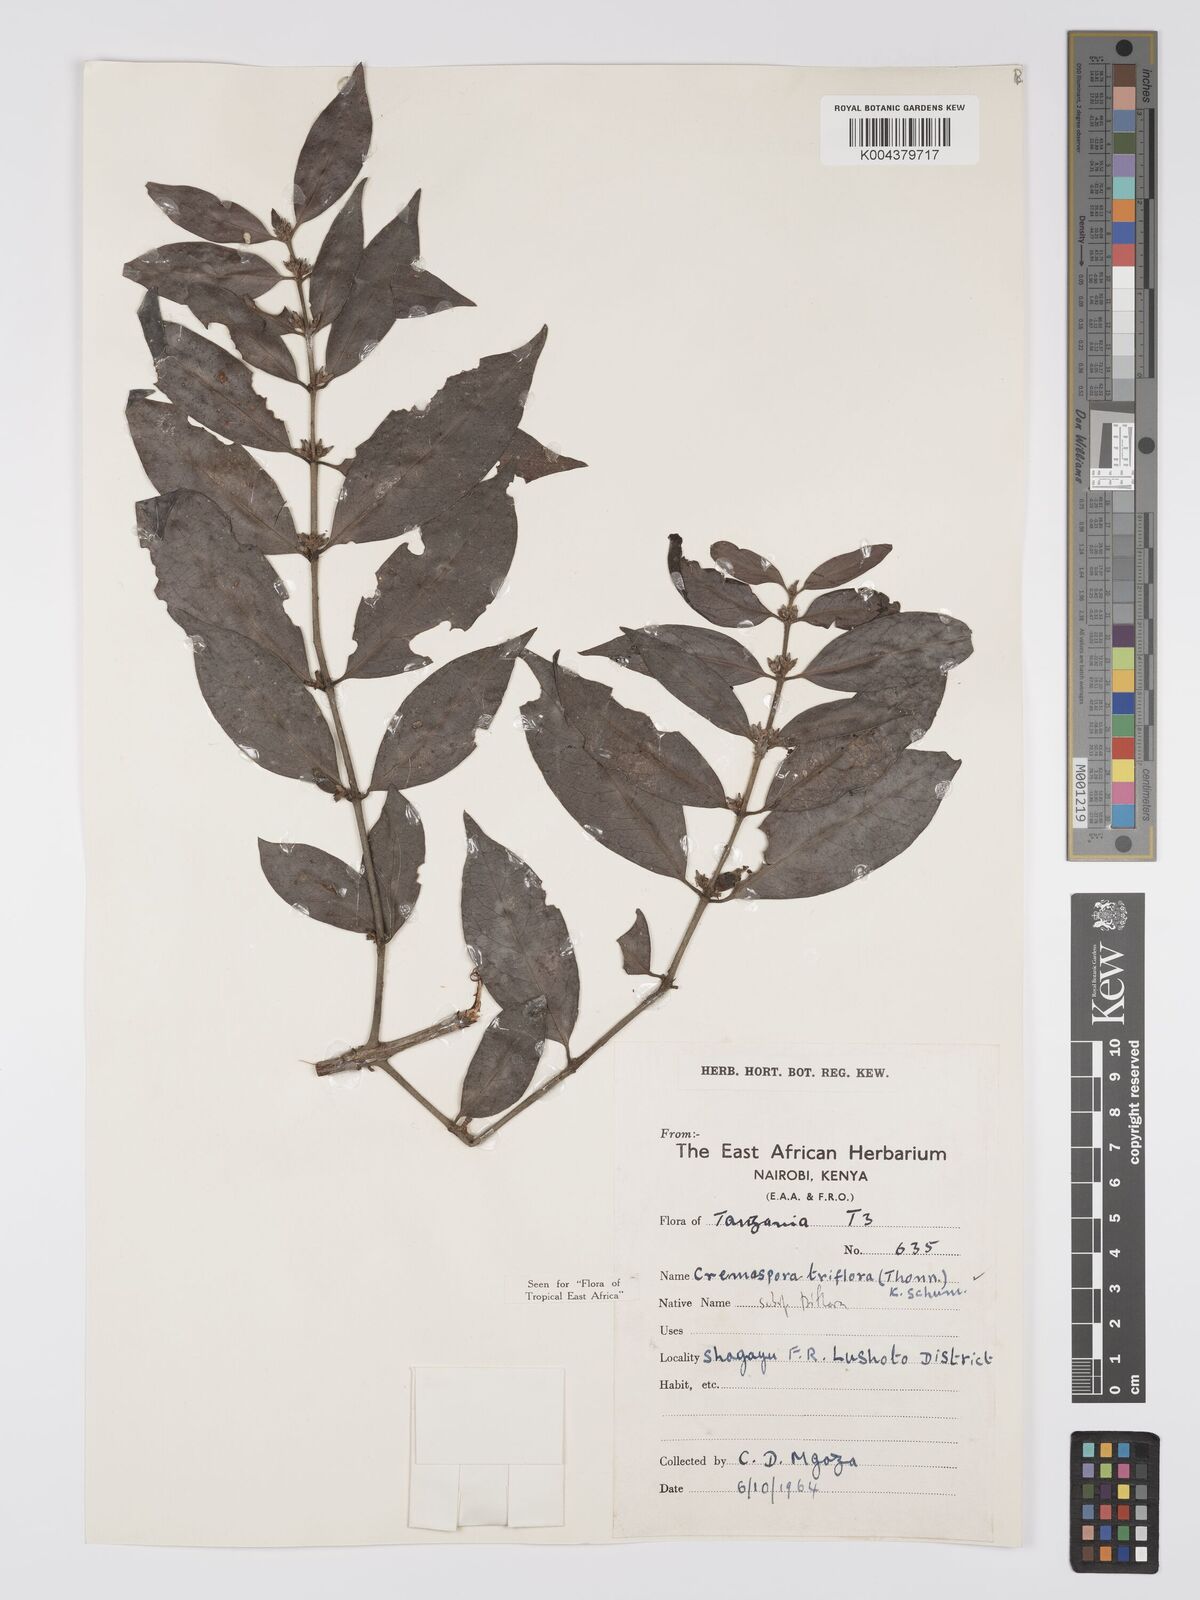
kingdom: Plantae
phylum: Tracheophyta
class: Magnoliopsida
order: Gentianales
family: Rubiaceae
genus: Cremaspora
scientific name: Cremaspora triflora
